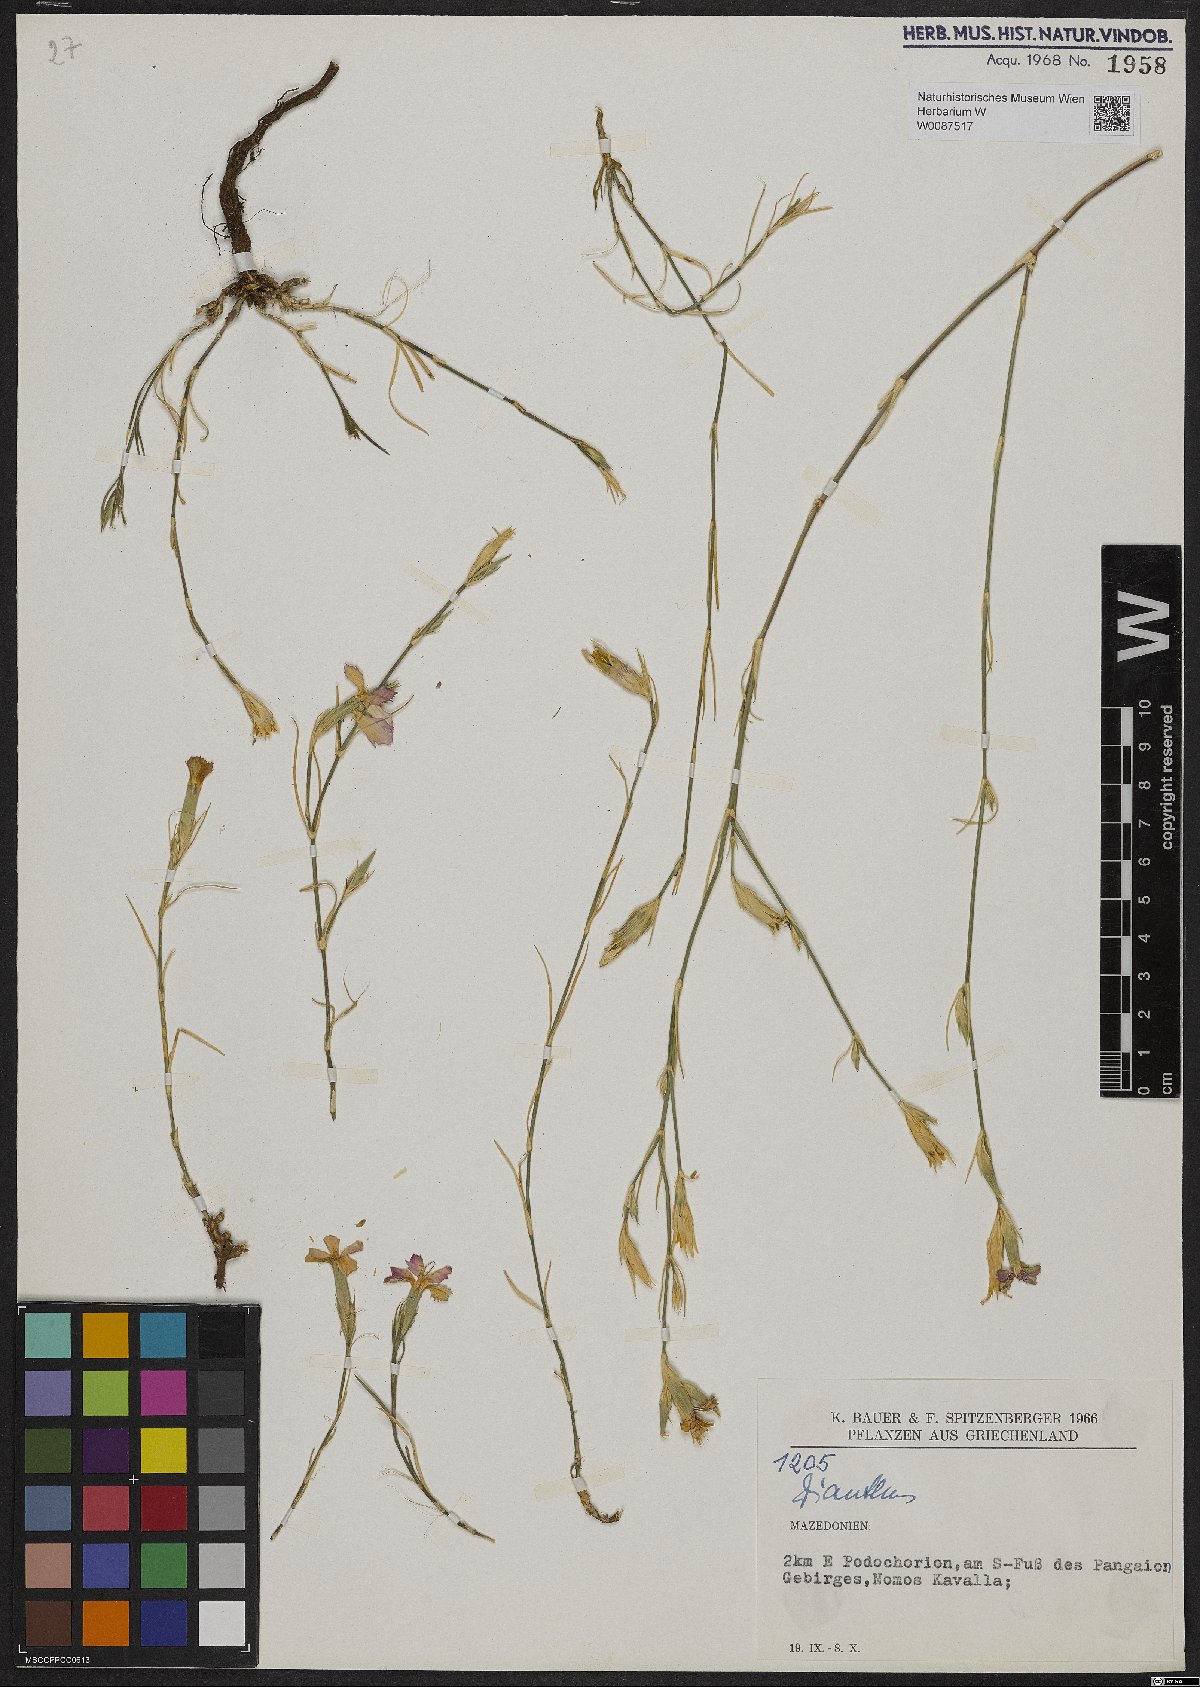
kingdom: Plantae
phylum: Tracheophyta
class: Magnoliopsida
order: Caryophyllales
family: Caryophyllaceae
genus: Dianthus
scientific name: Dianthus
